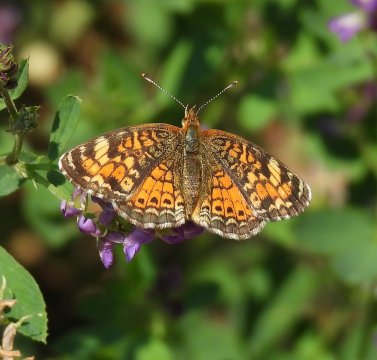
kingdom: Animalia
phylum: Arthropoda
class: Insecta
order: Lepidoptera
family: Nymphalidae
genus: Phyciodes
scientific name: Phyciodes tharos
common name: Northern Crescent
